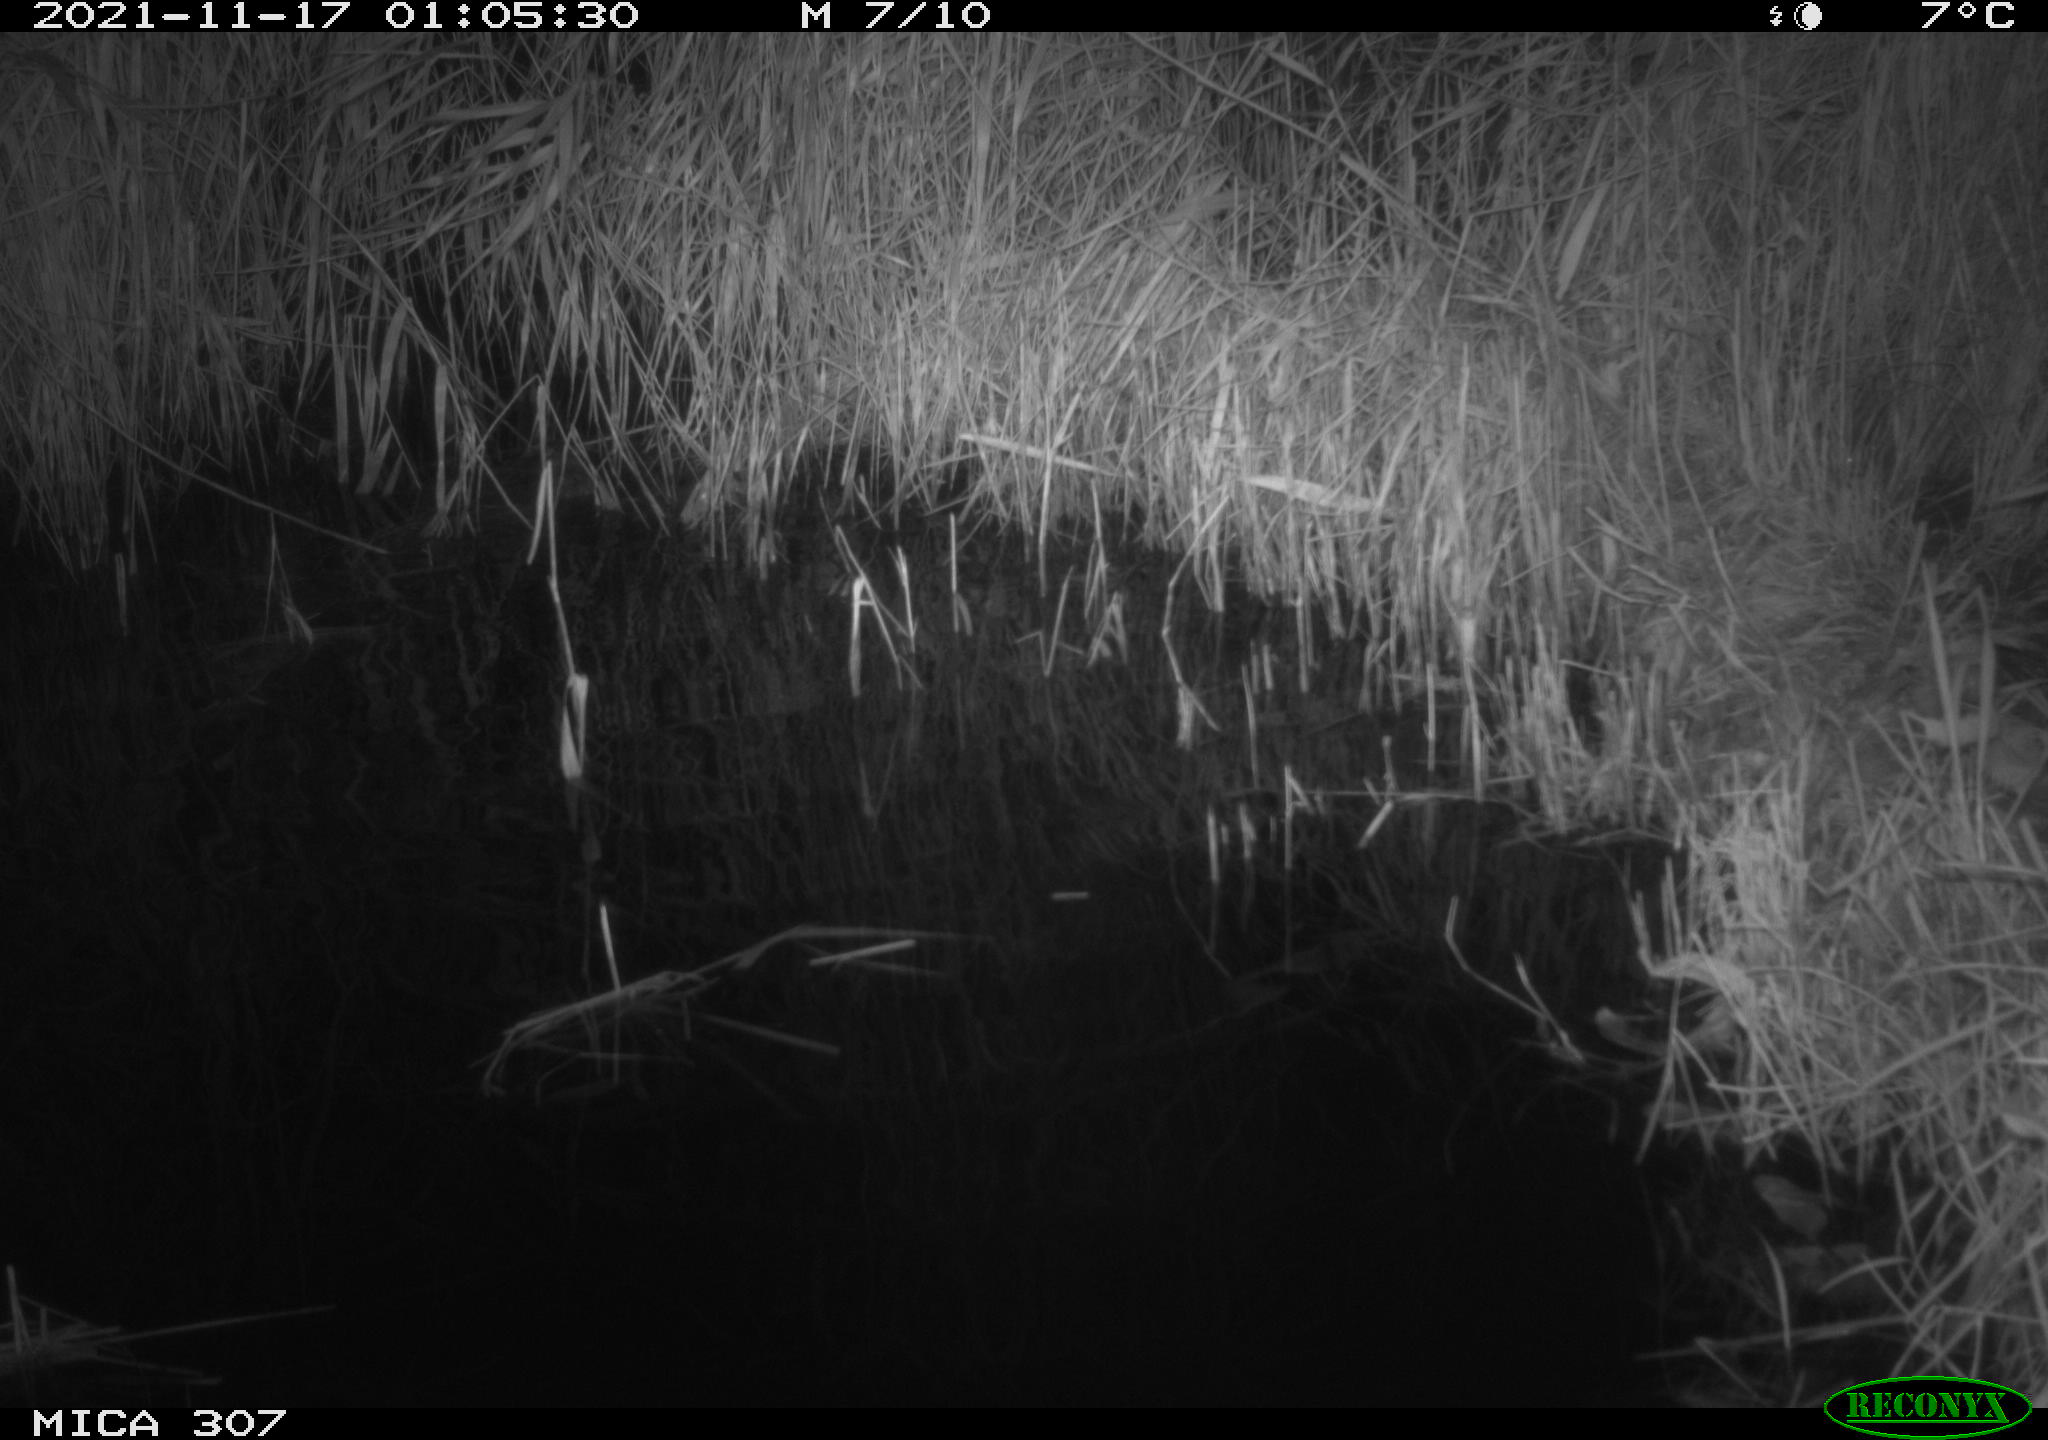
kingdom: Animalia
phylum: Chordata
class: Mammalia
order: Rodentia
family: Muridae
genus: Rattus
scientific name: Rattus norvegicus
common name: Brown rat
